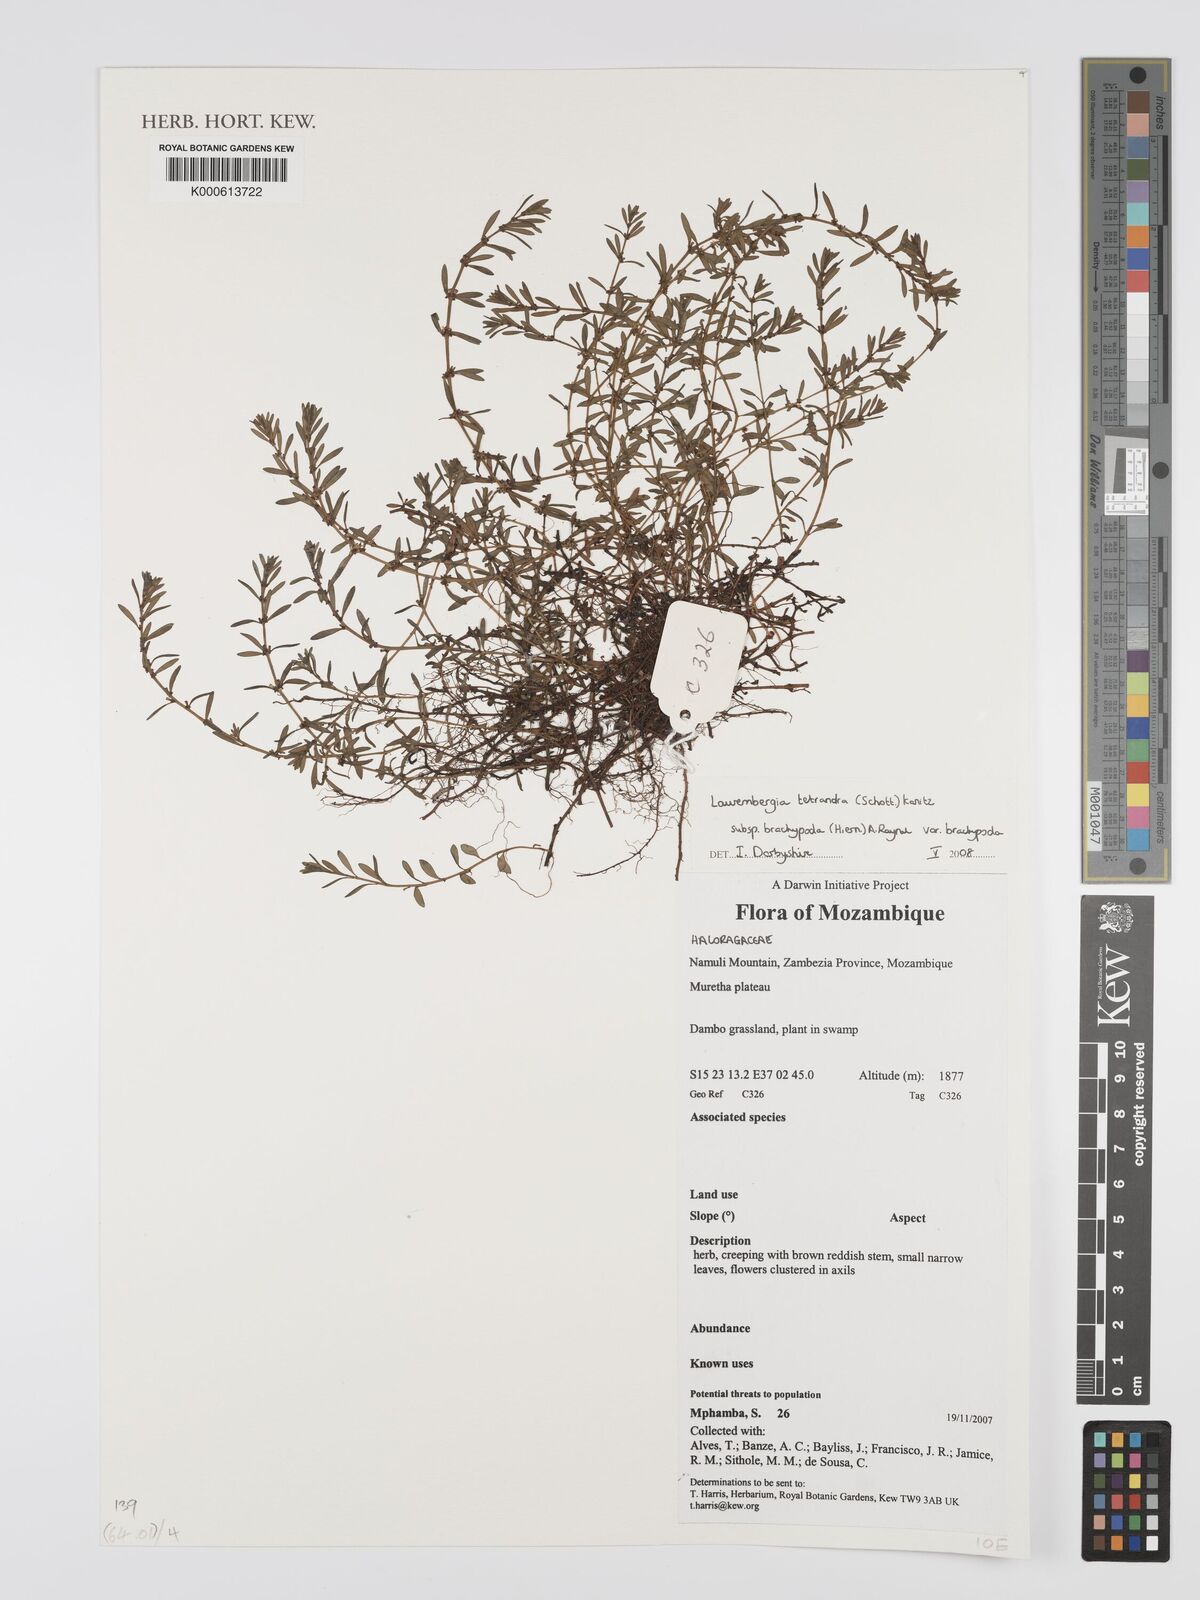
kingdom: Plantae
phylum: Tracheophyta
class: Magnoliopsida
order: Saxifragales
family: Haloragaceae
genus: Laurembergia
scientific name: Laurembergia tetrandra
